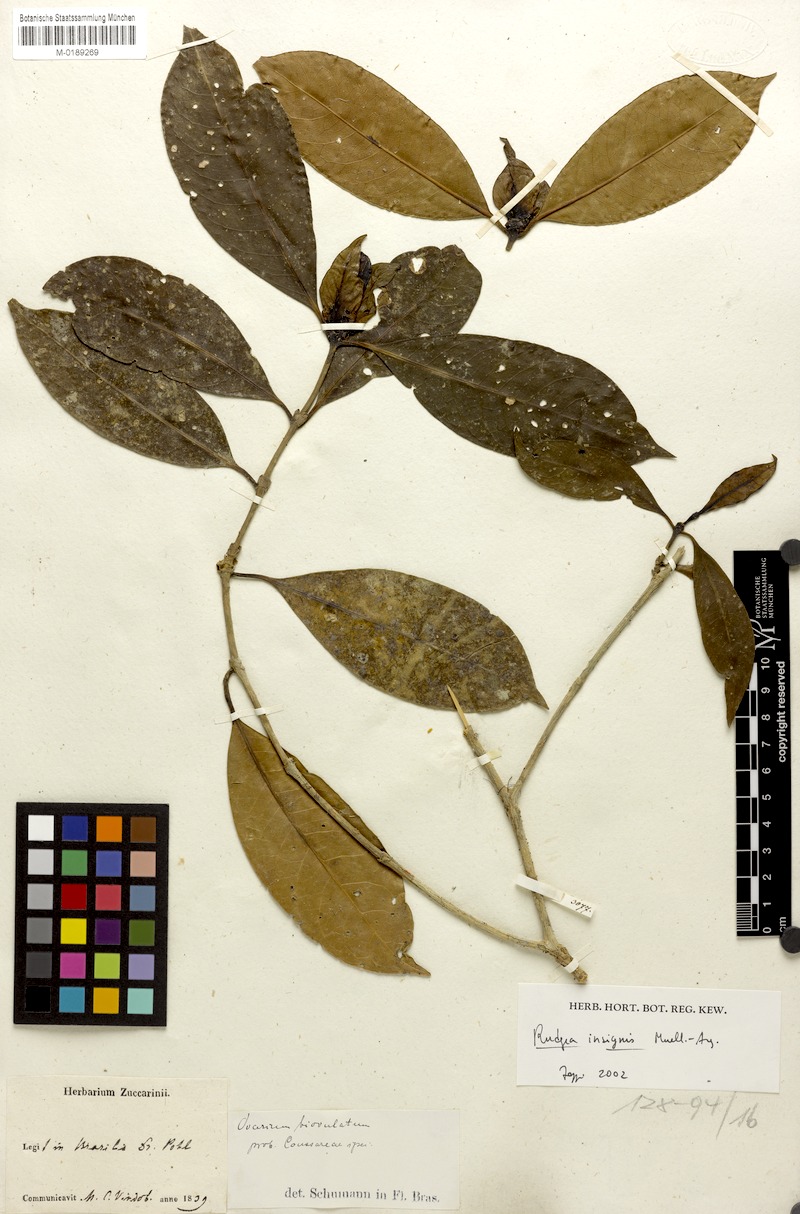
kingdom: Plantae
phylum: Tracheophyta
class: Magnoliopsida
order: Gentianales
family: Rubiaceae
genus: Rudgea
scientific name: Rudgea insignis
